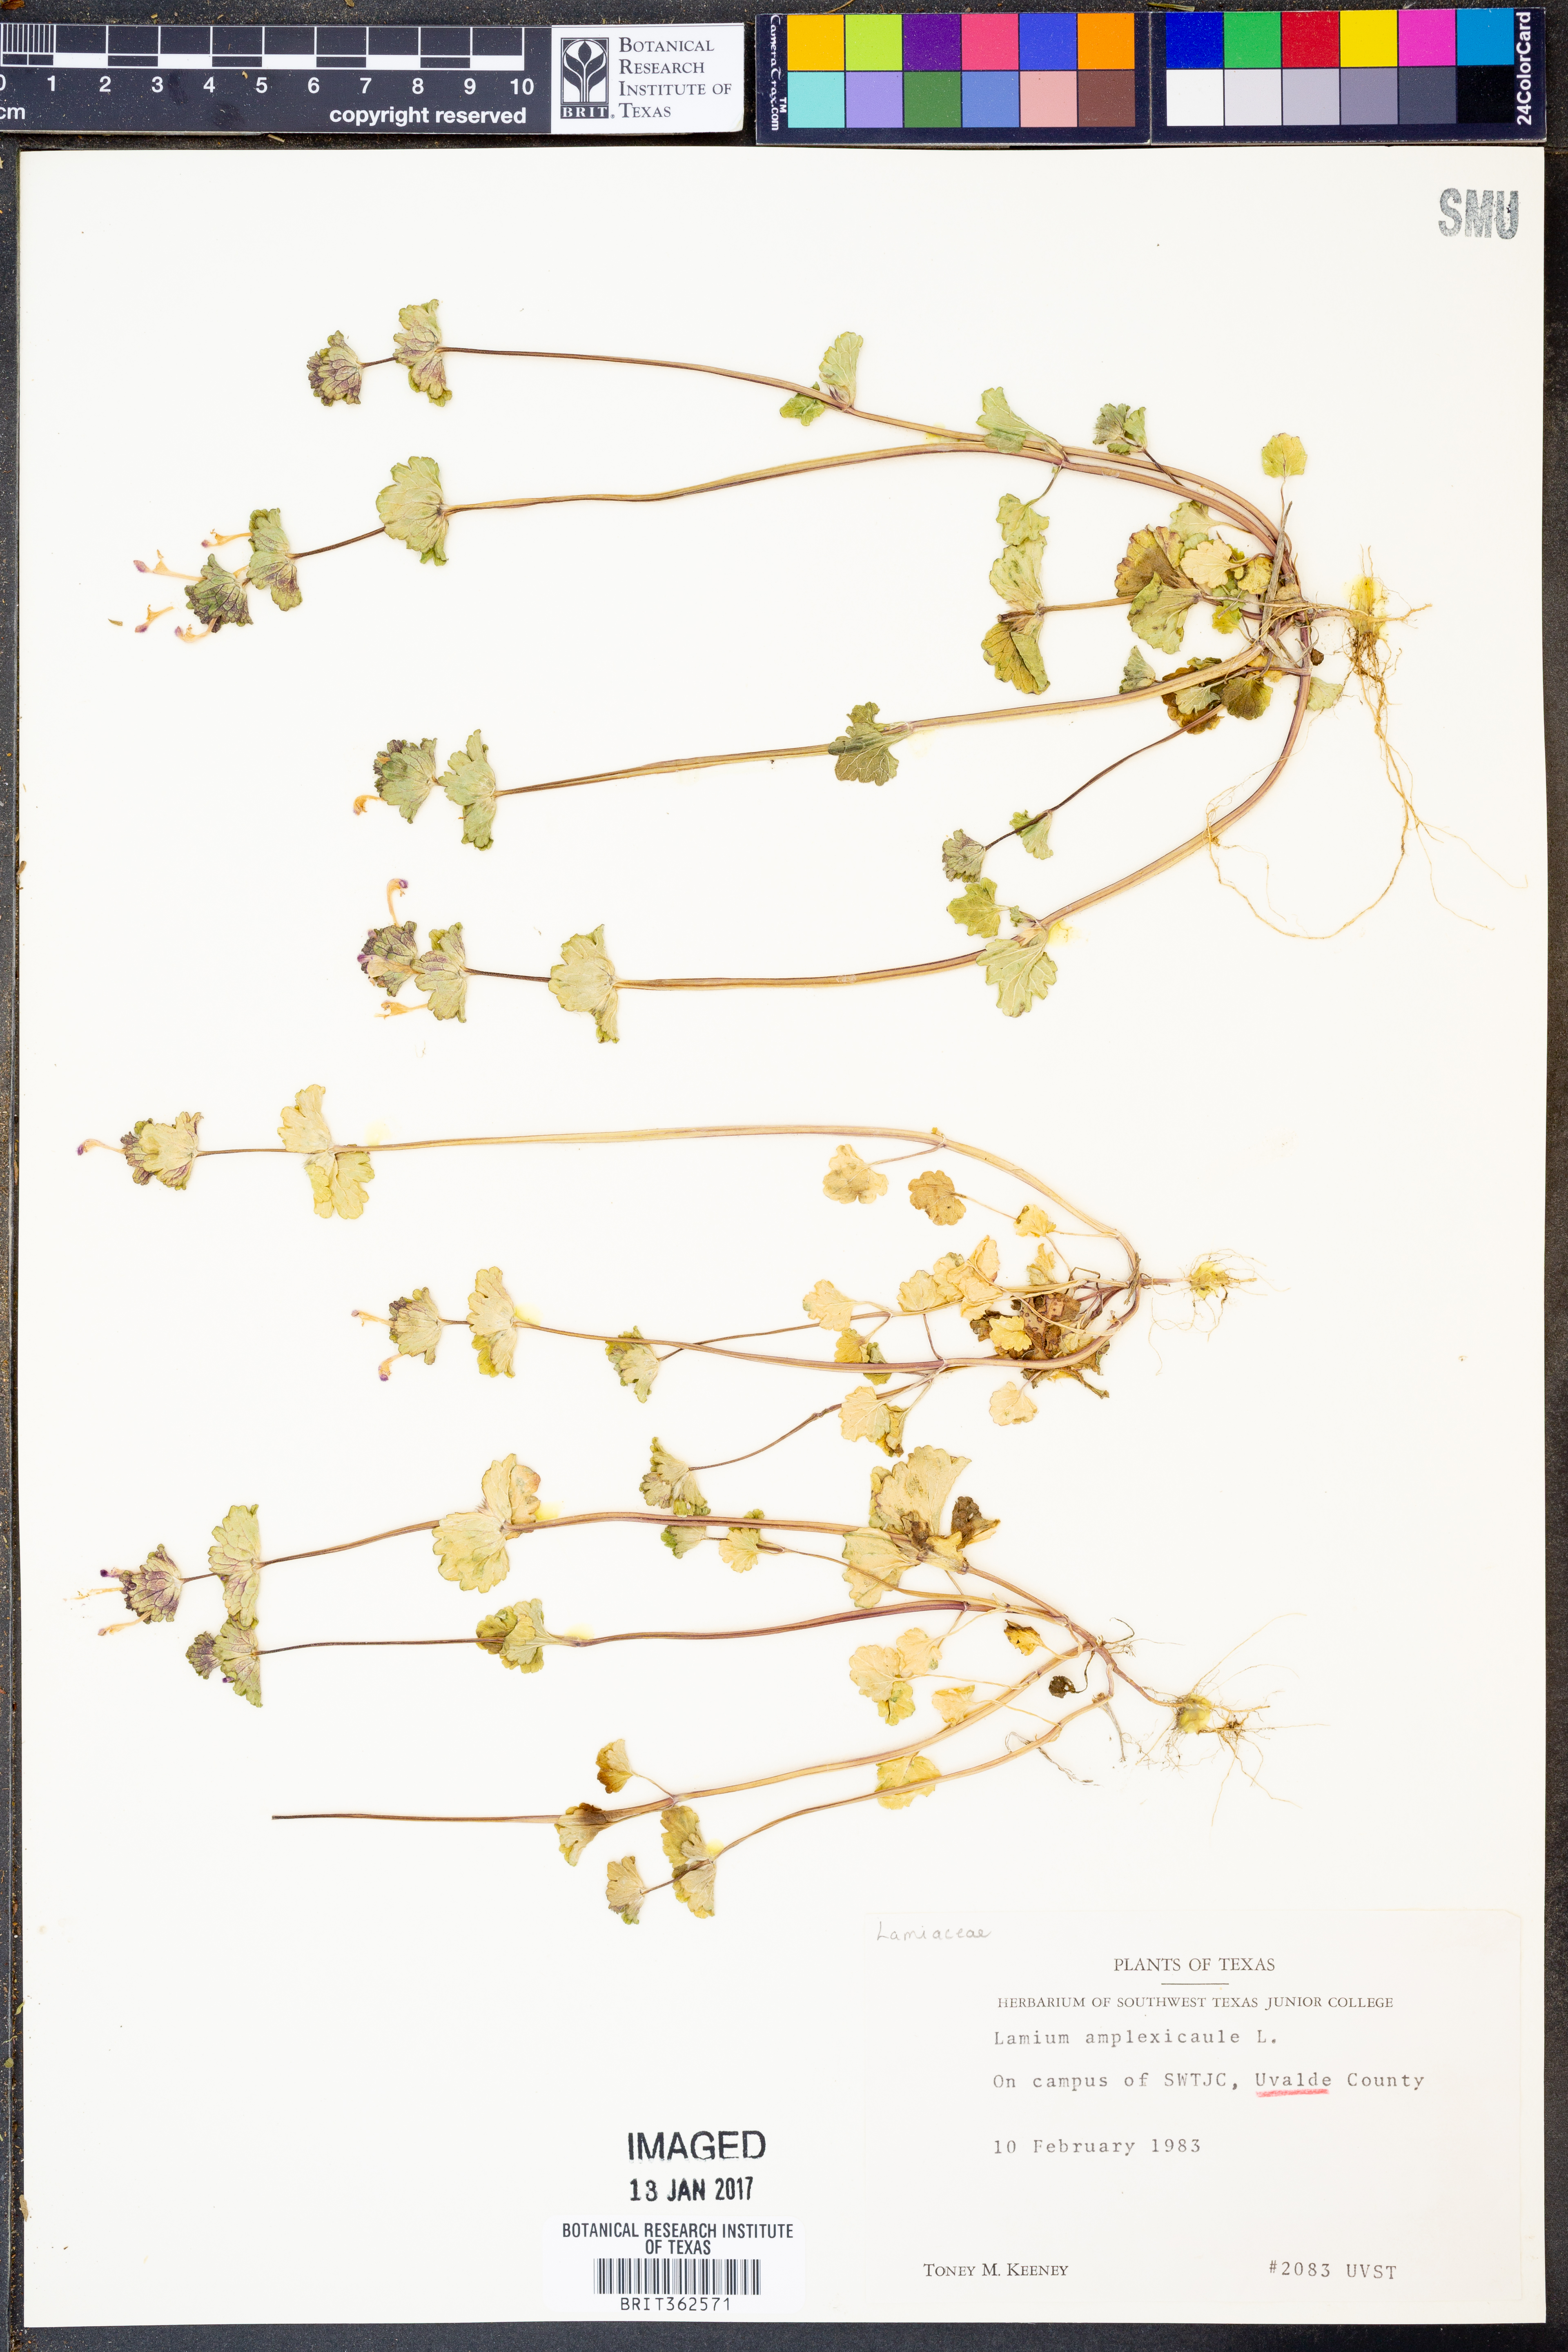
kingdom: Plantae
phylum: Tracheophyta
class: Magnoliopsida
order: Lamiales
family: Lamiaceae
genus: Lamium
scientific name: Lamium amplexicaule
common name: Henbit dead-nettle
